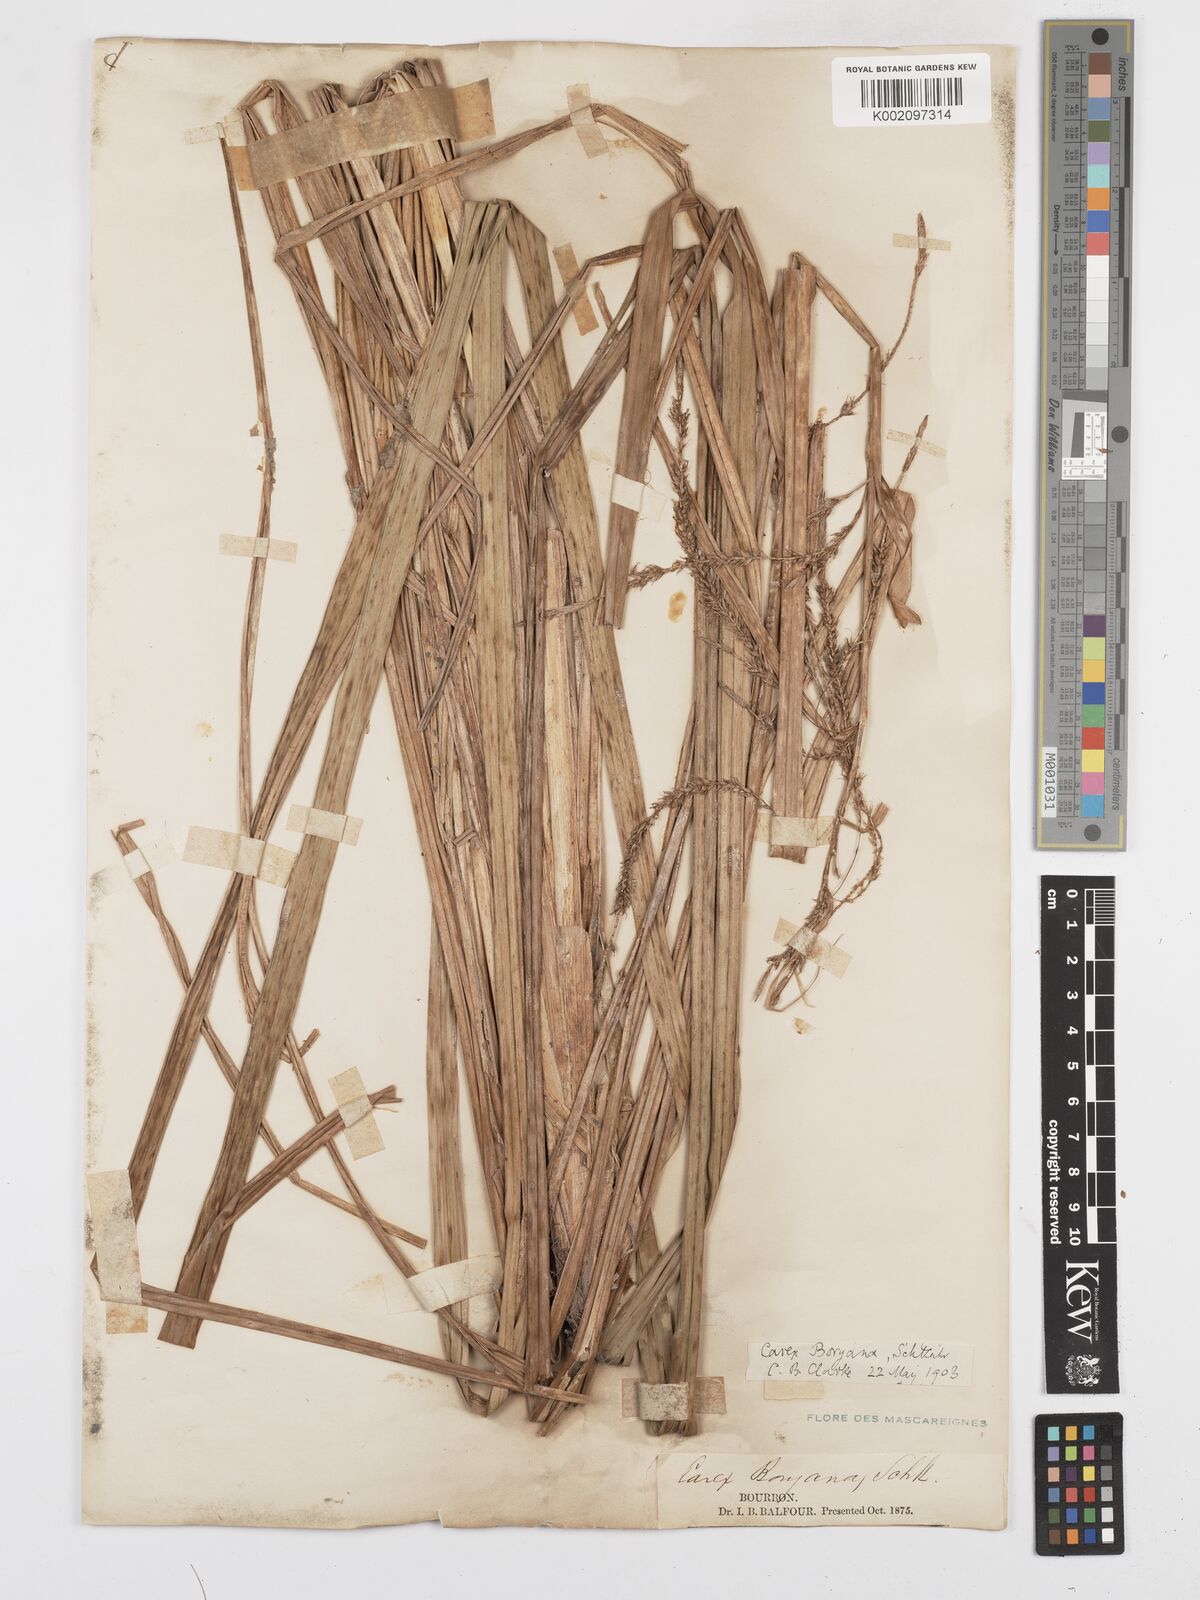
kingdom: Plantae
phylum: Tracheophyta
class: Liliopsida
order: Poales
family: Cyperaceae
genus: Carex
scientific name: Carex boryana
